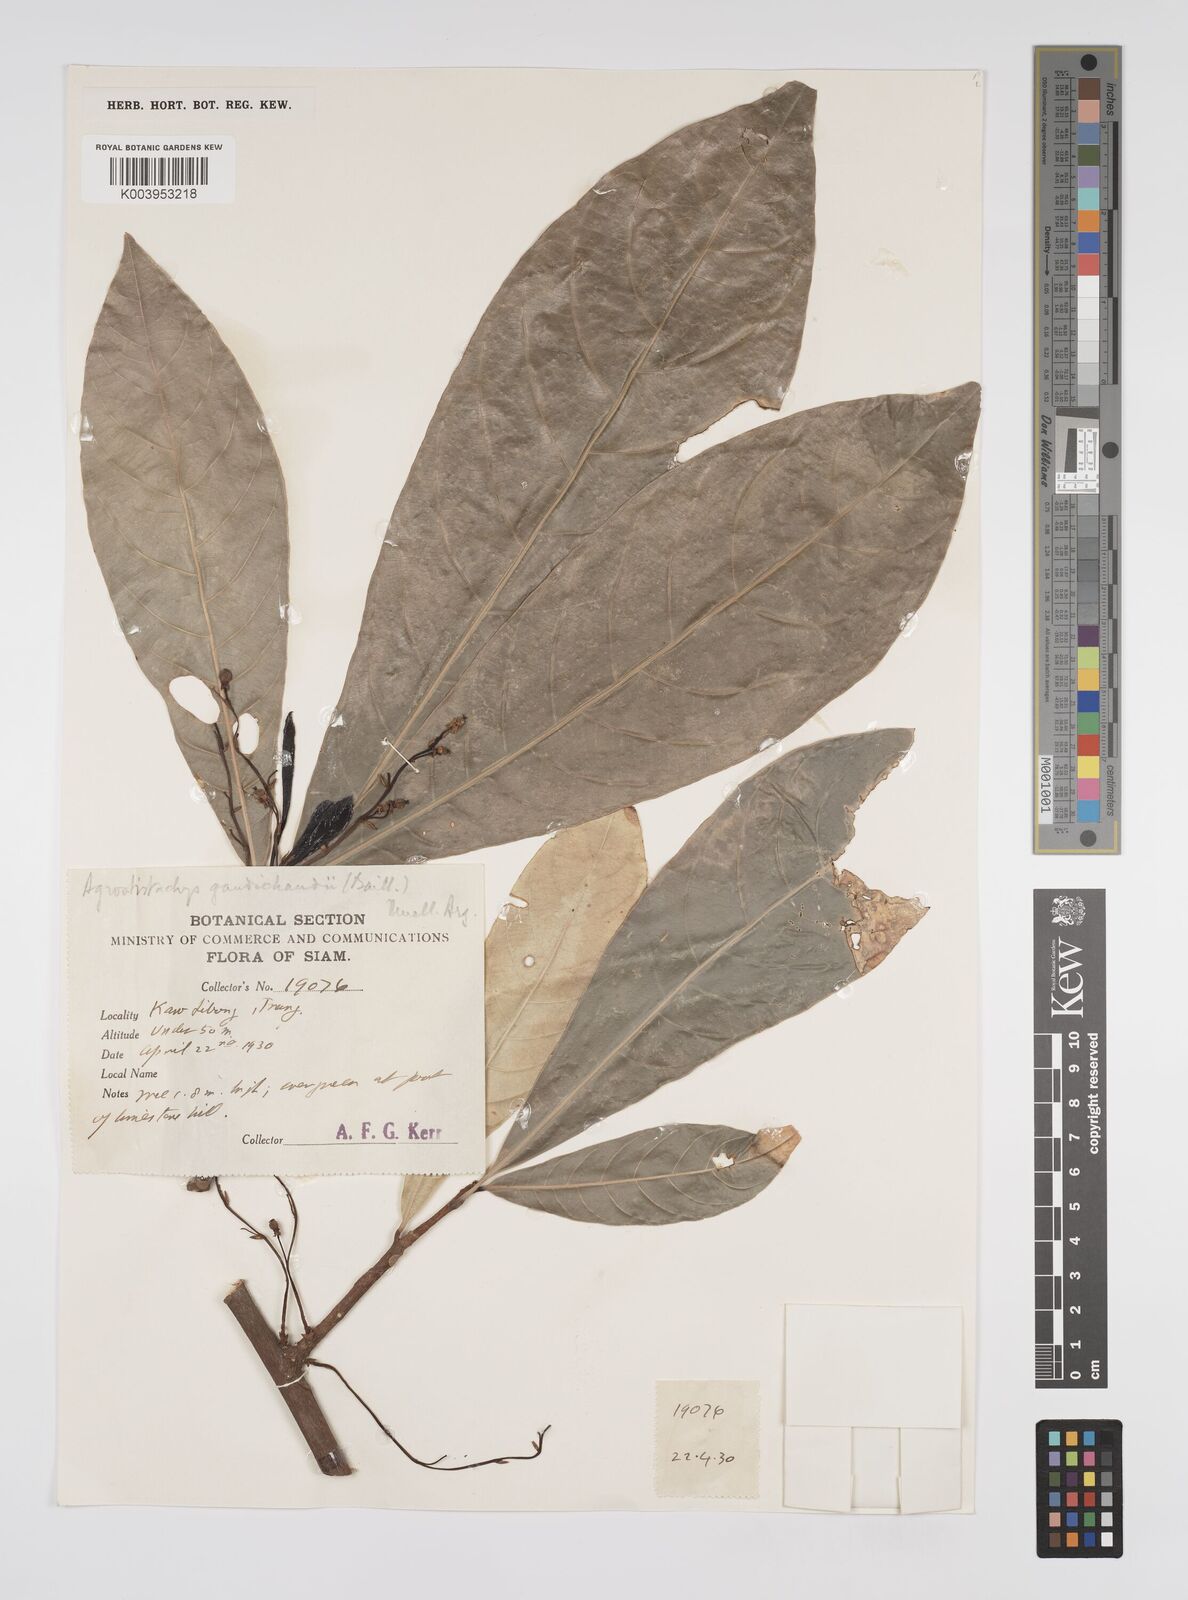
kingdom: Plantae
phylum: Tracheophyta
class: Magnoliopsida
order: Malpighiales
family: Euphorbiaceae
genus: Agrostistachys
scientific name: Agrostistachys gaudichaudii
